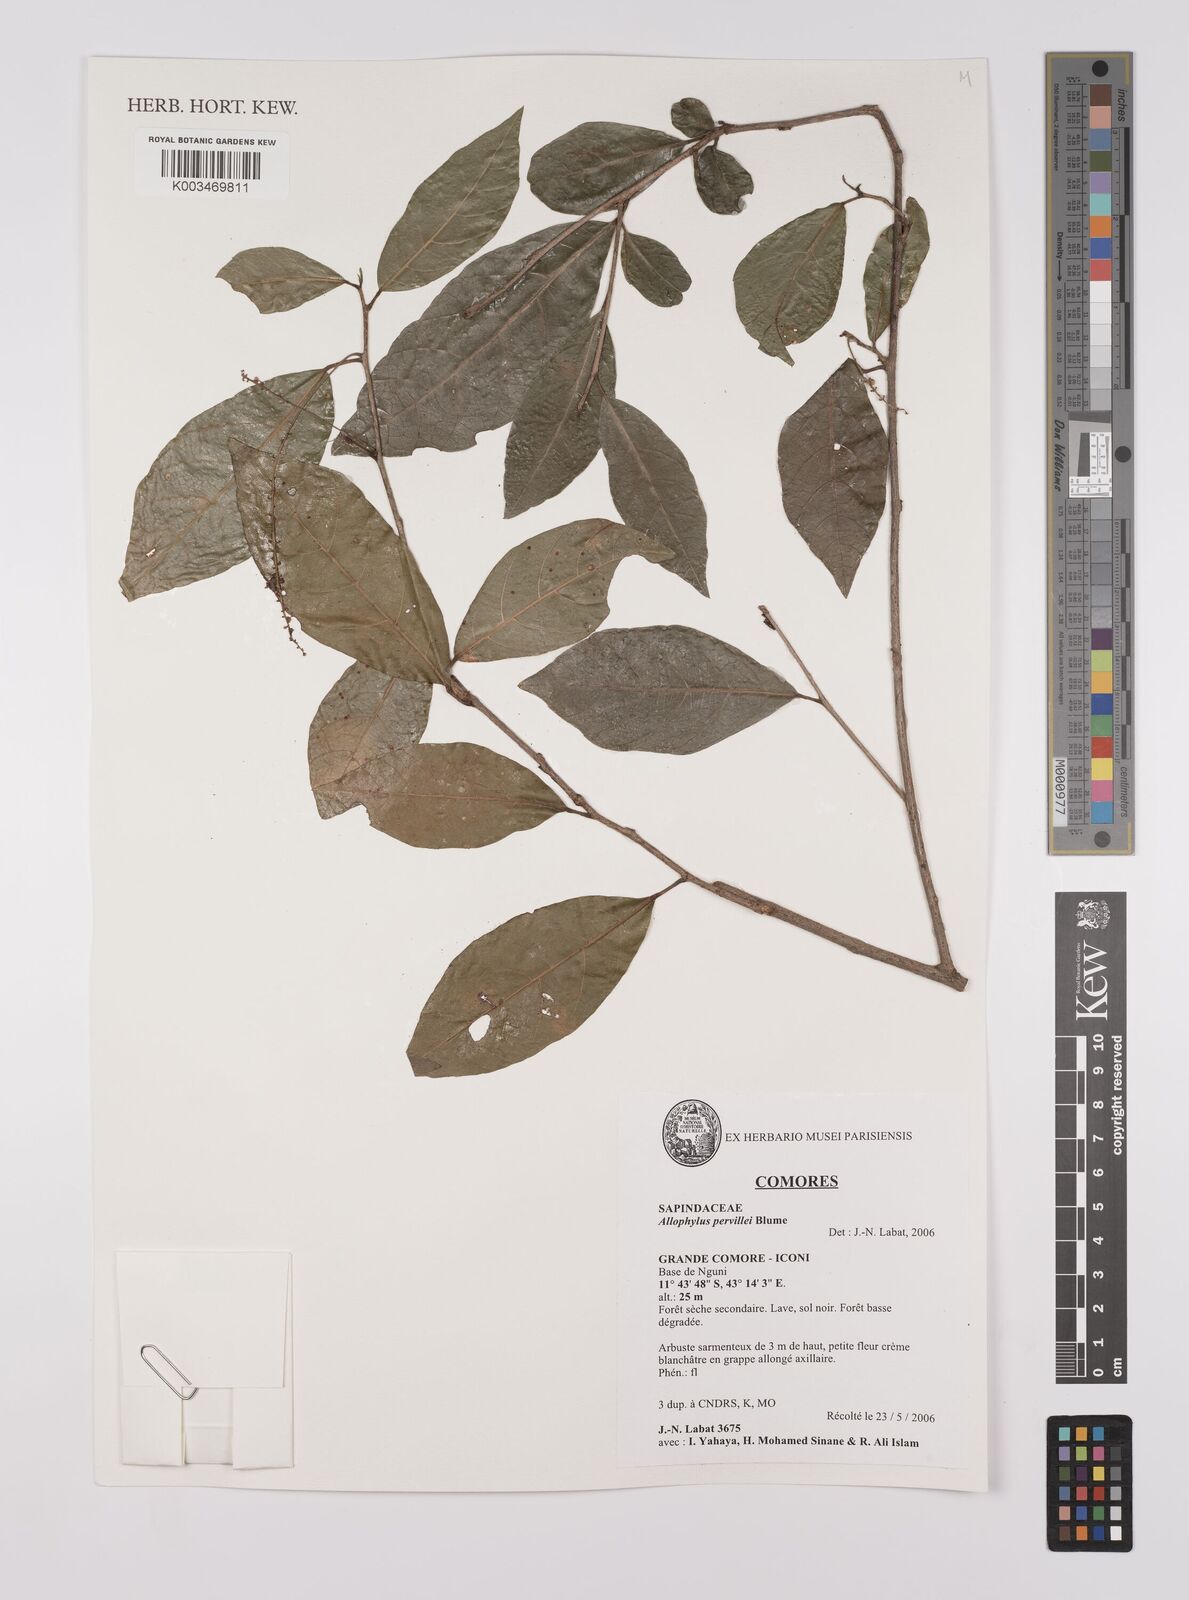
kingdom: Plantae
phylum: Tracheophyta
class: Magnoliopsida
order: Sapindales
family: Sapindaceae
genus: Allophylus
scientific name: Allophylus pervillei
